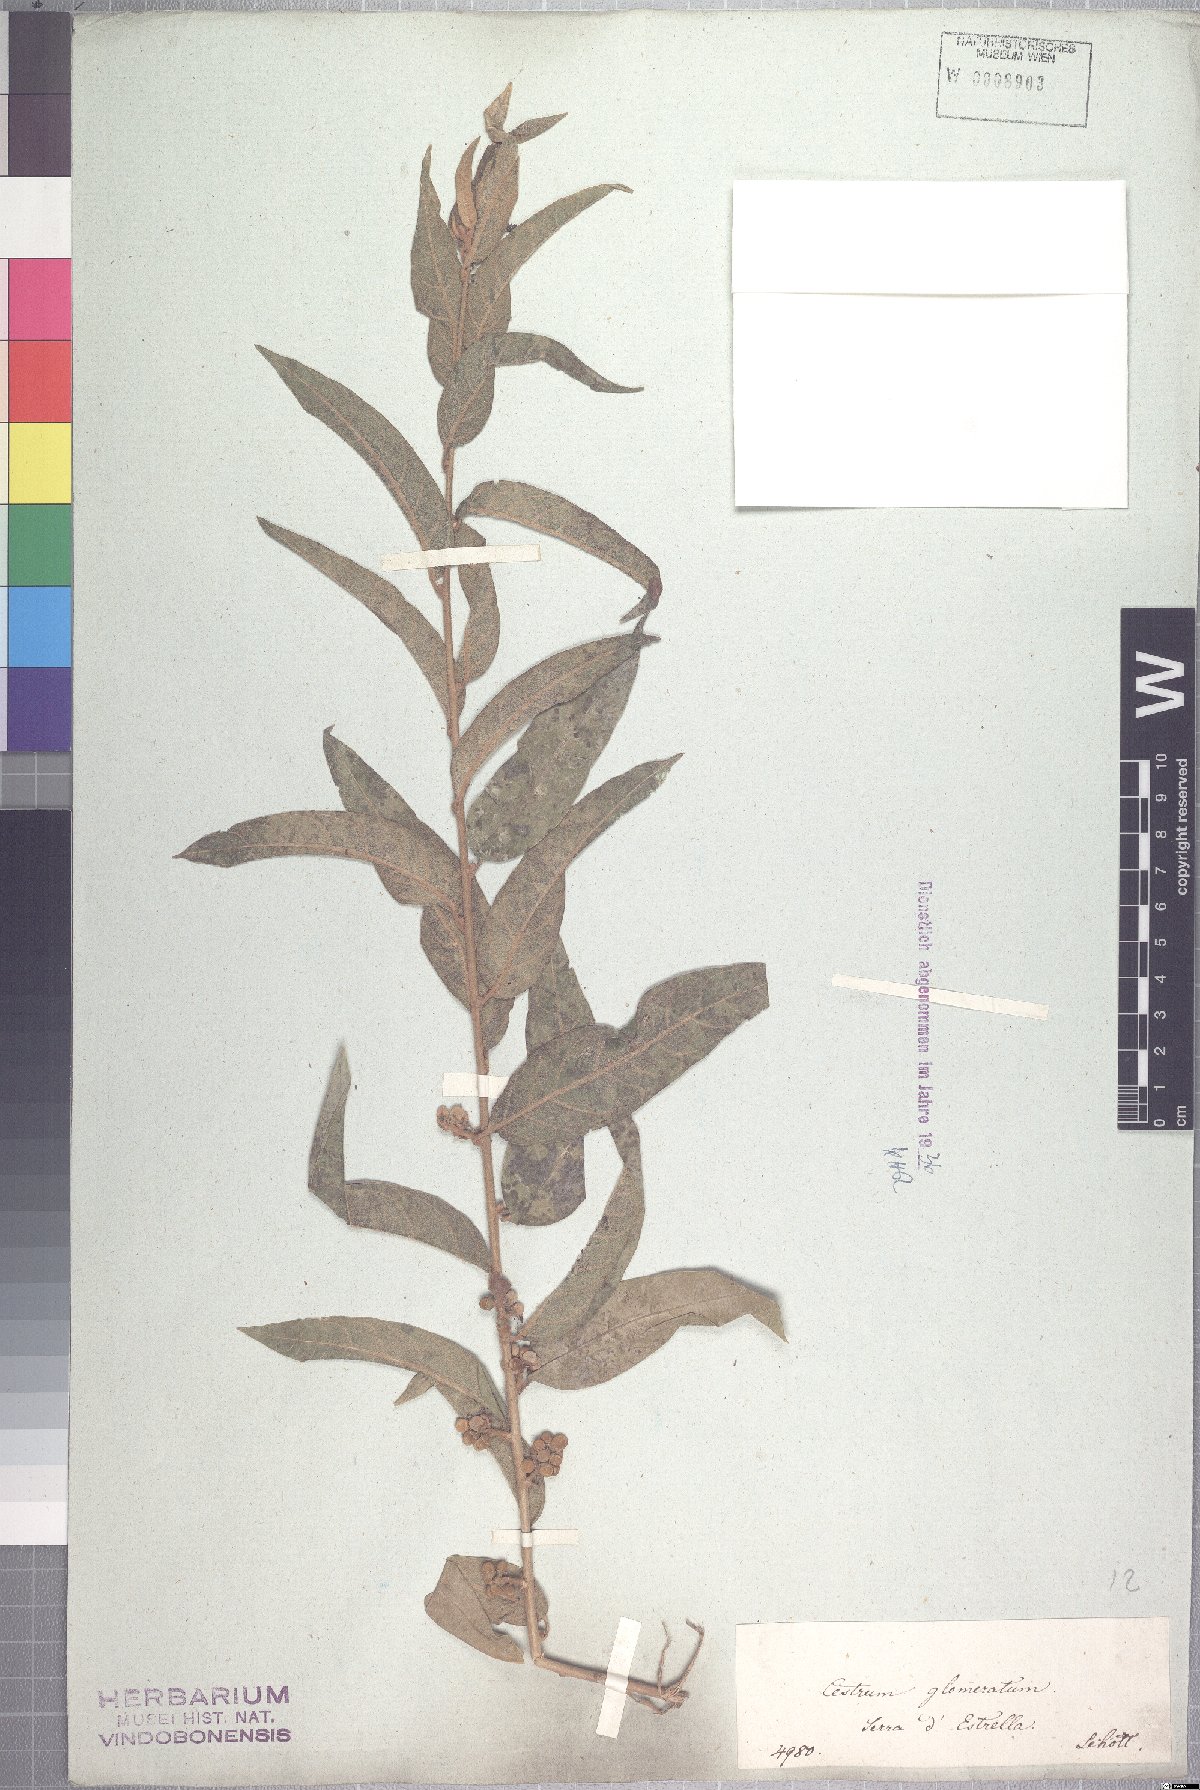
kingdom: Plantae
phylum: Tracheophyta
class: Magnoliopsida
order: Solanales
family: Solanaceae
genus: Cestrum
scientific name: Cestrum subpulverulentum
